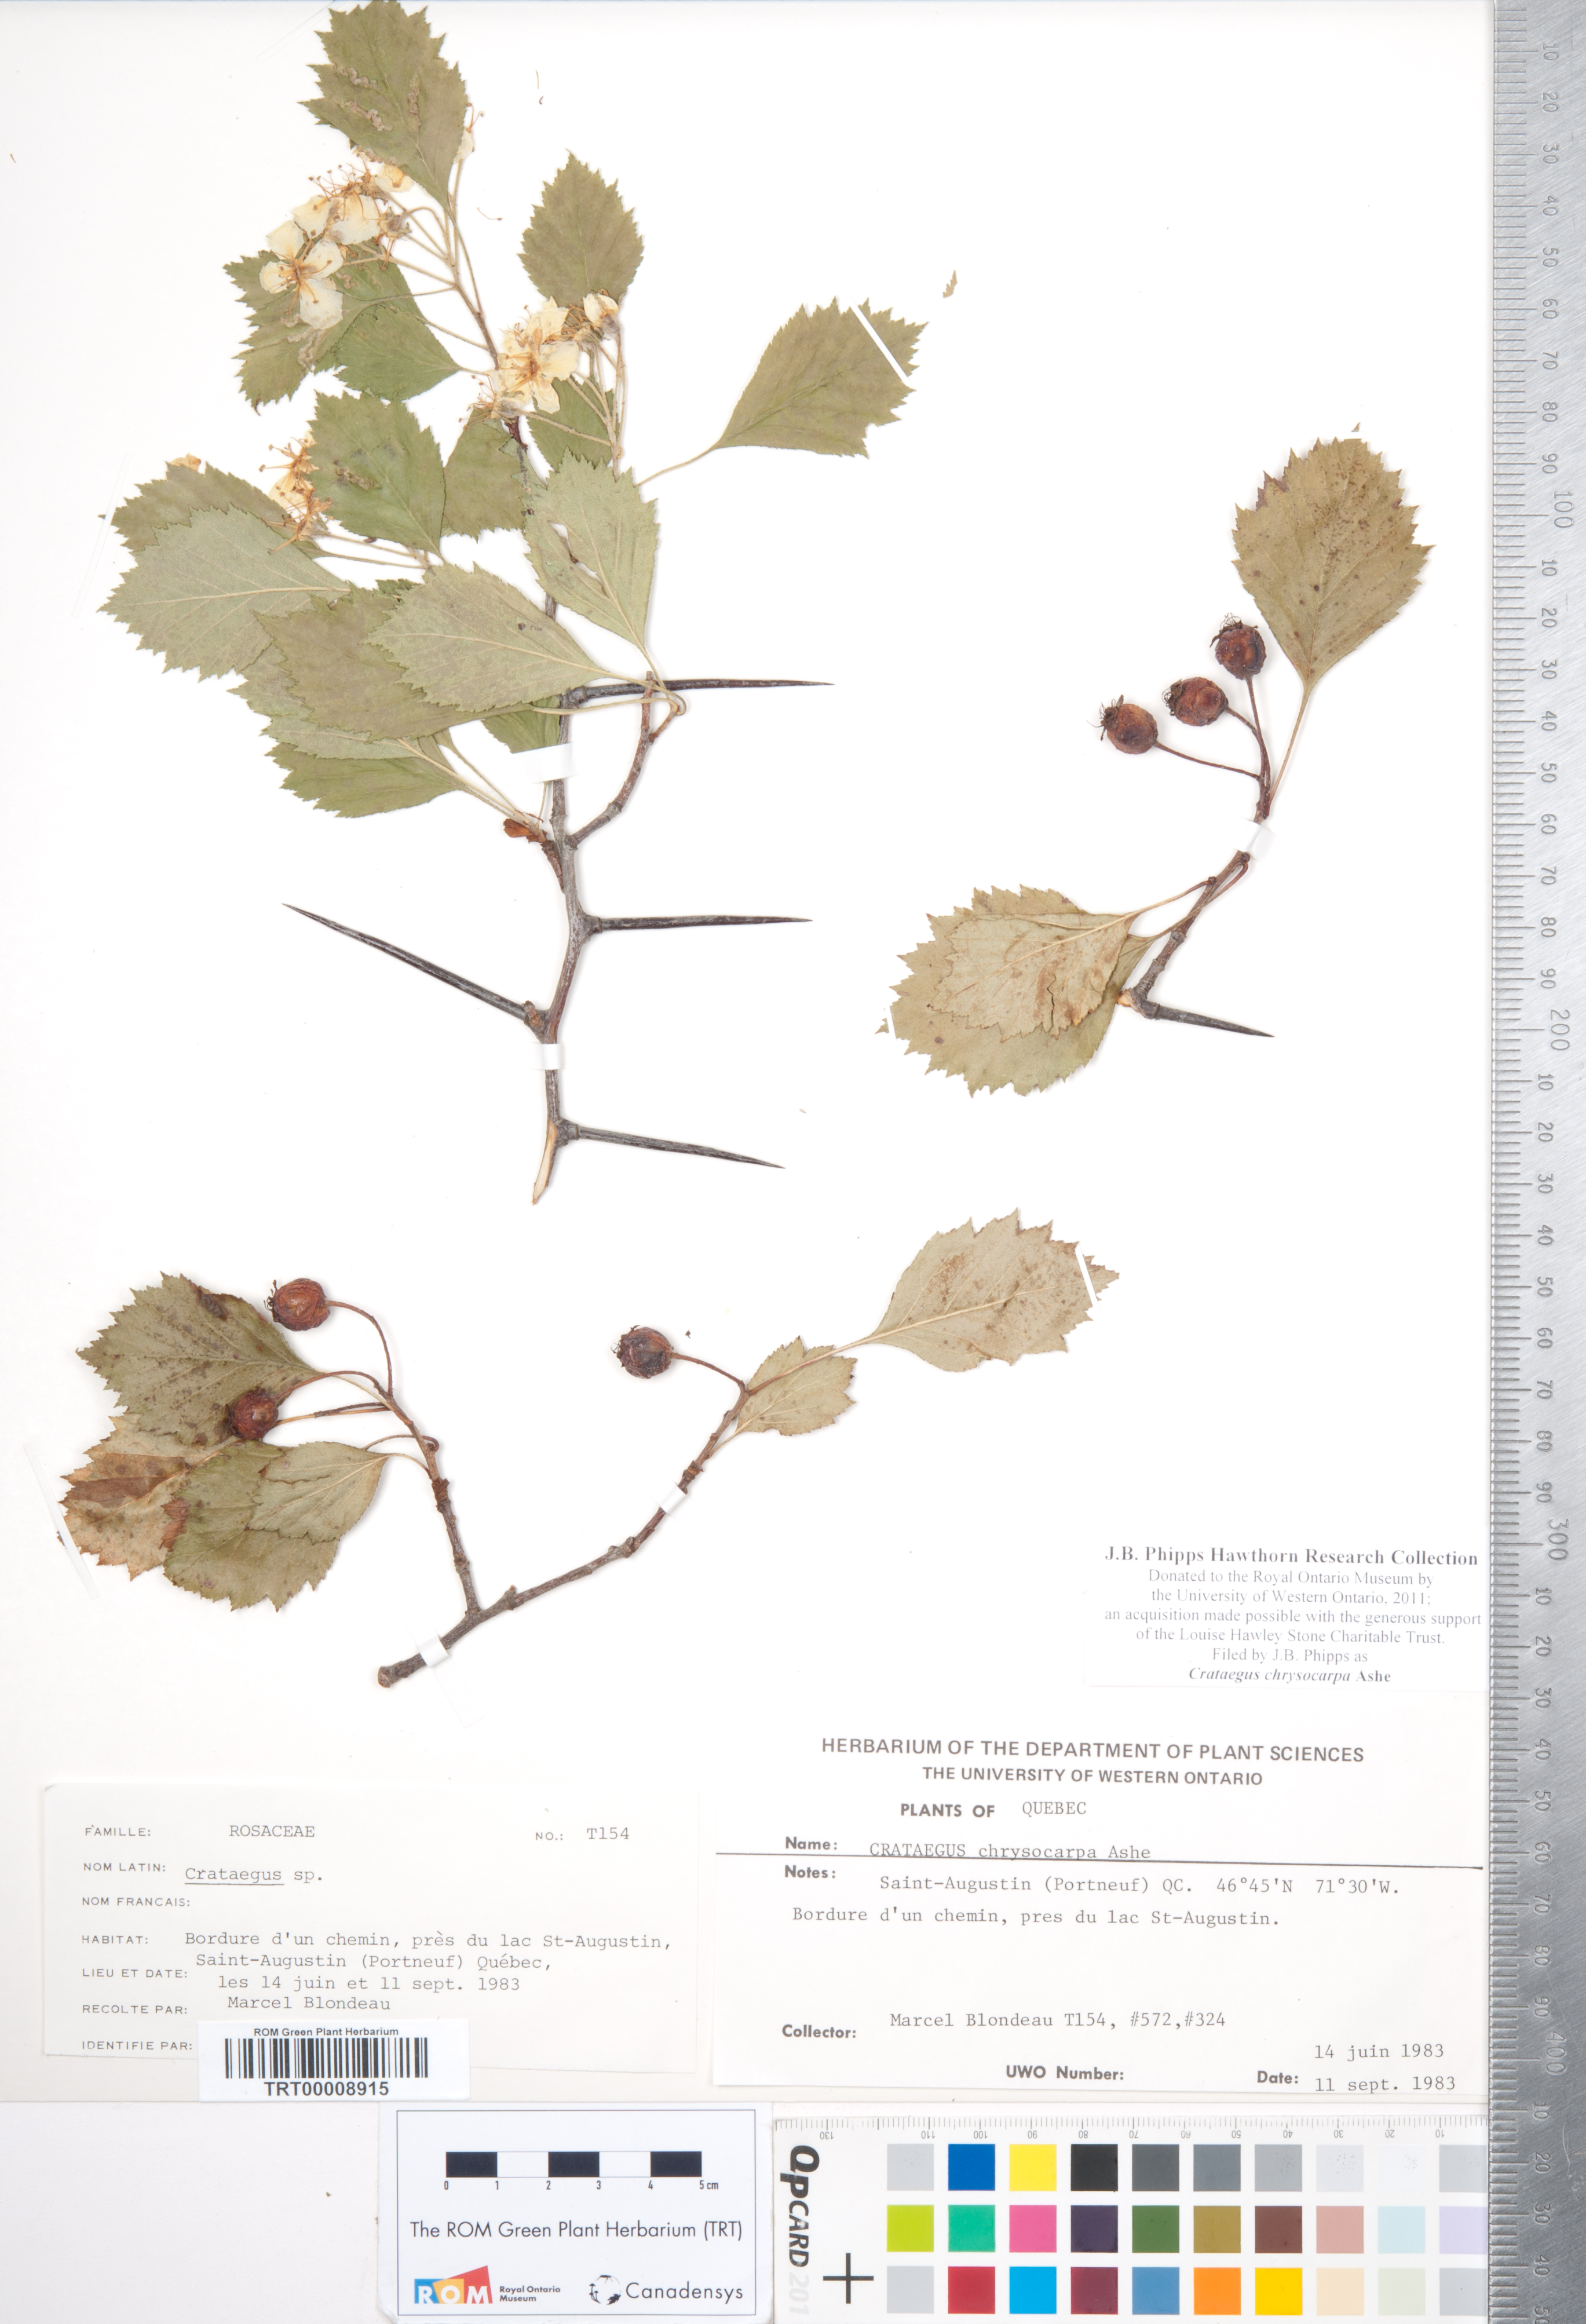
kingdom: Plantae
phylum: Tracheophyta
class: Magnoliopsida
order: Rosales
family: Rosaceae
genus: Crataegus
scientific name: Crataegus chrysocarpa
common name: Fire-berry hawthorn
